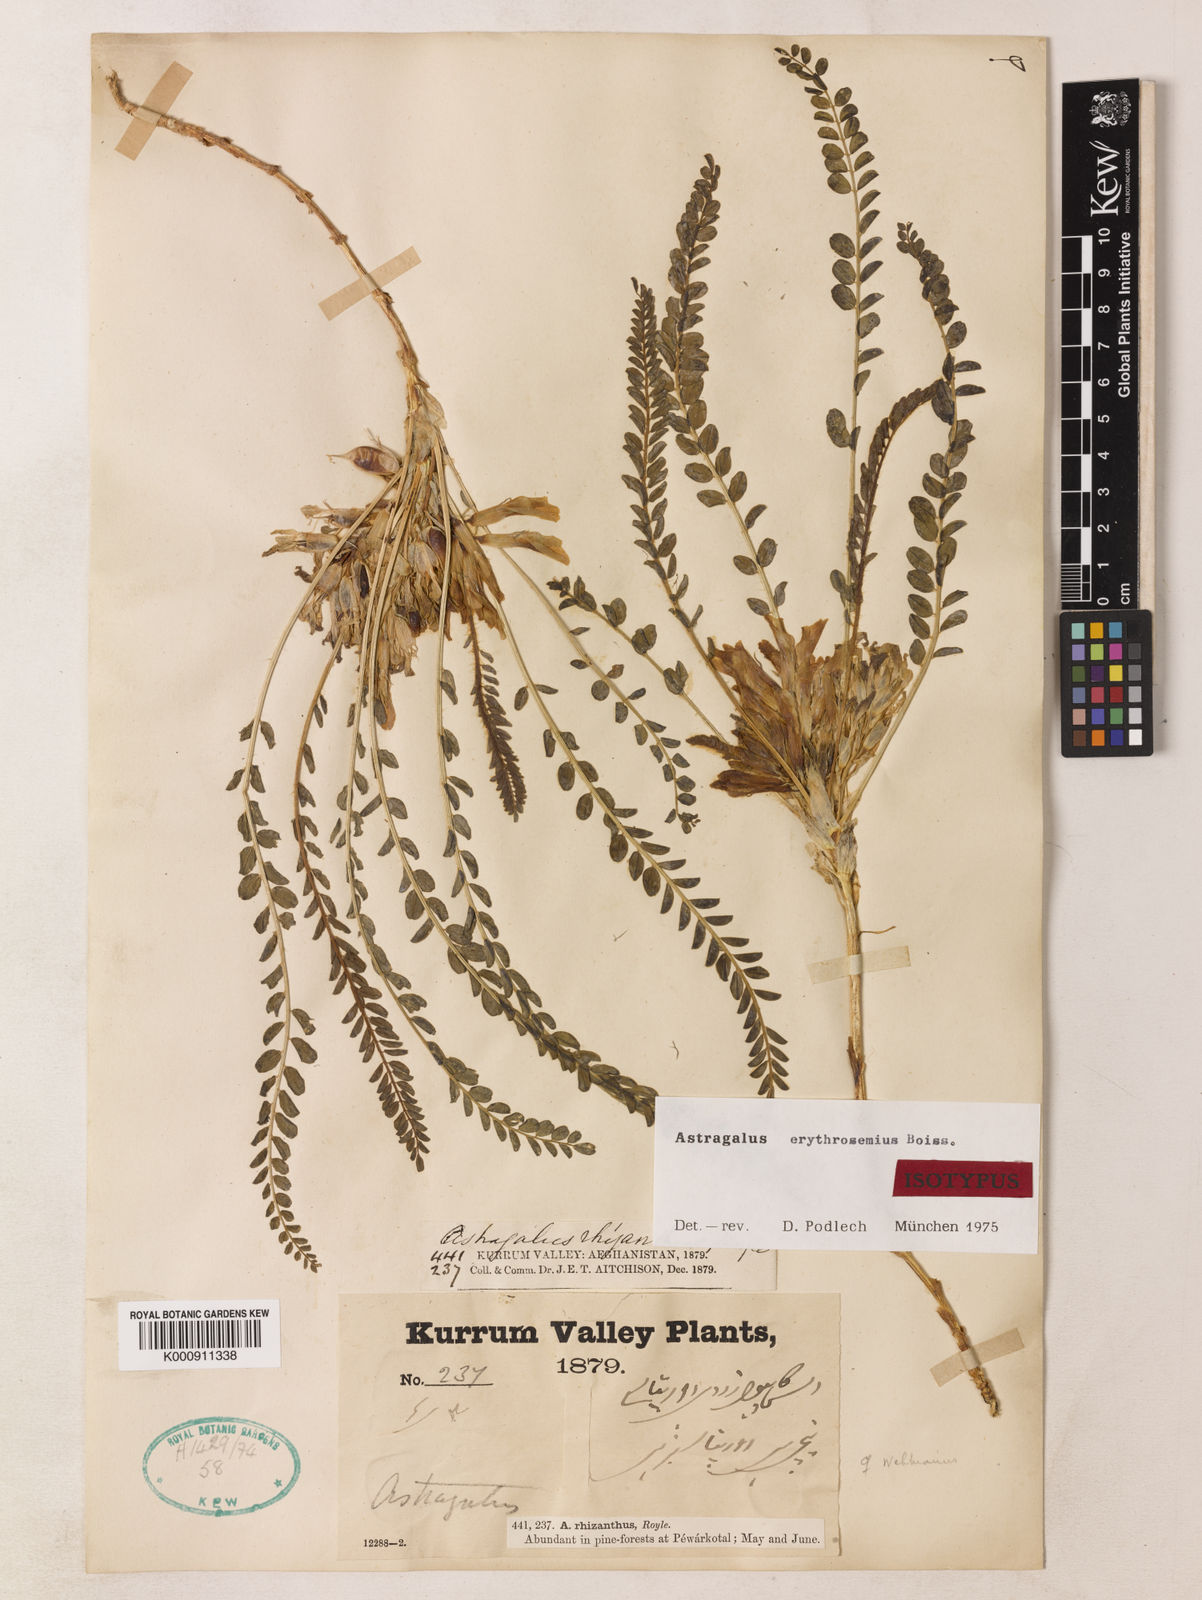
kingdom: Plantae
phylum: Tracheophyta
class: Magnoliopsida
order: Fabales
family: Fabaceae
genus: Astragalus
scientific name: Astragalus erythrosemius
